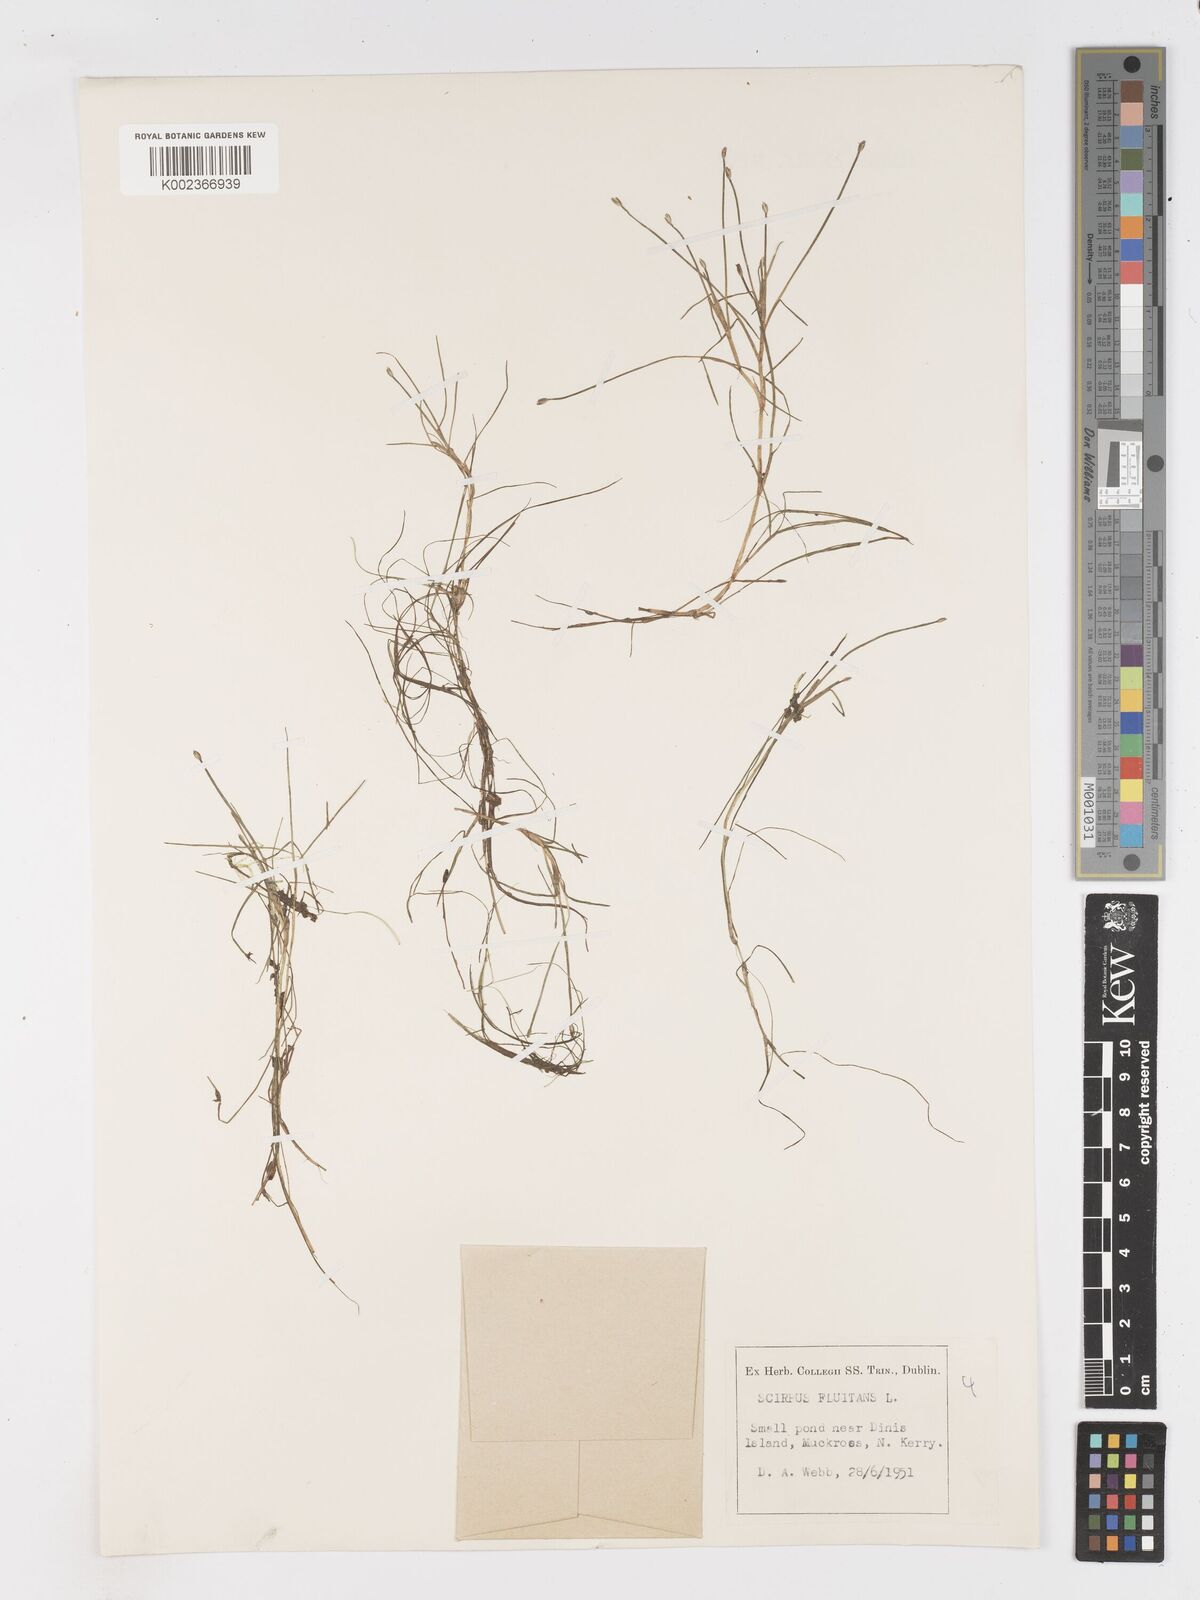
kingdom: Plantae
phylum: Tracheophyta
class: Liliopsida
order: Poales
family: Cyperaceae
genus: Isolepis
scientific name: Isolepis fluitans
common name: Floating club-rush
